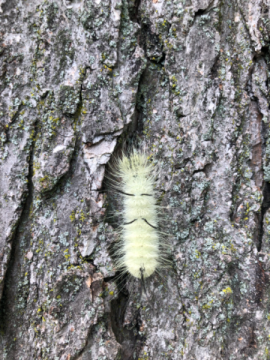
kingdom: Animalia
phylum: Arthropoda
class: Insecta
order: Lepidoptera
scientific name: Lepidoptera
